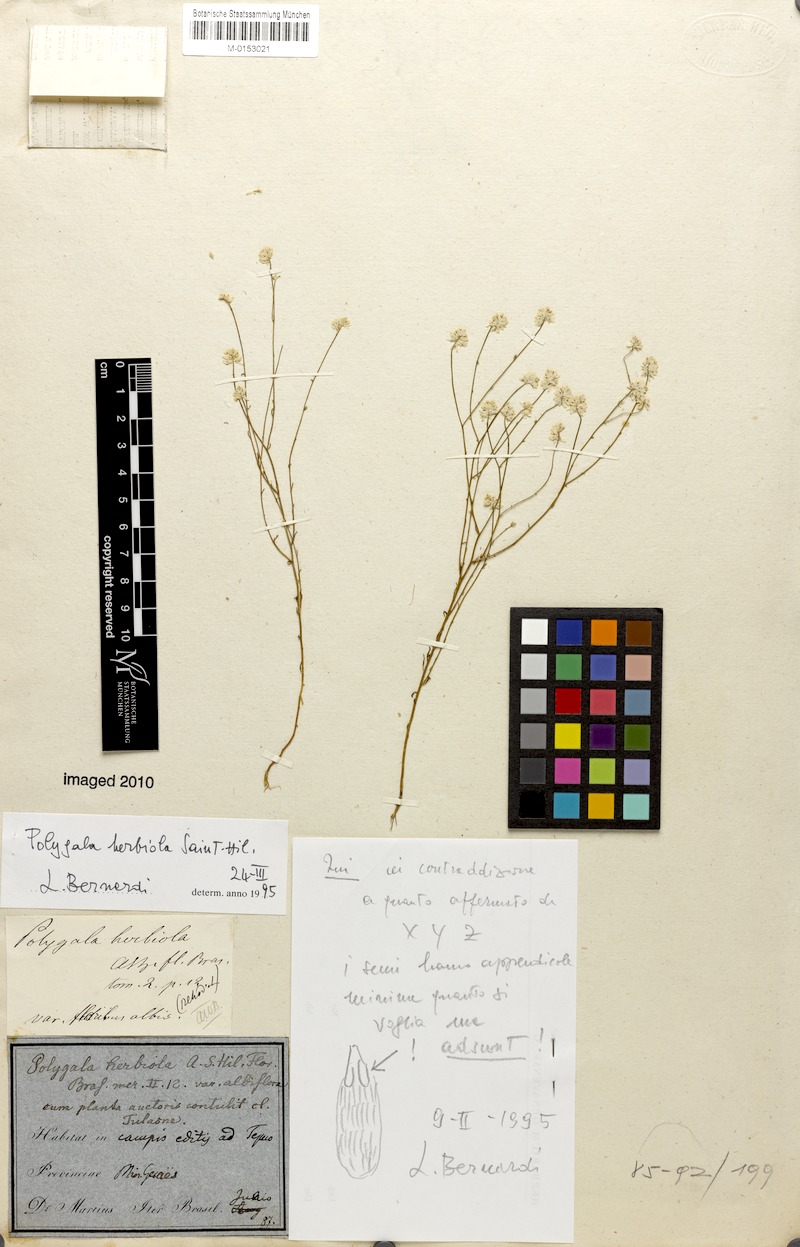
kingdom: Plantae
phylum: Tracheophyta
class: Magnoliopsida
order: Fabales
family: Polygalaceae
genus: Polygala
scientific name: Polygala herbiola
